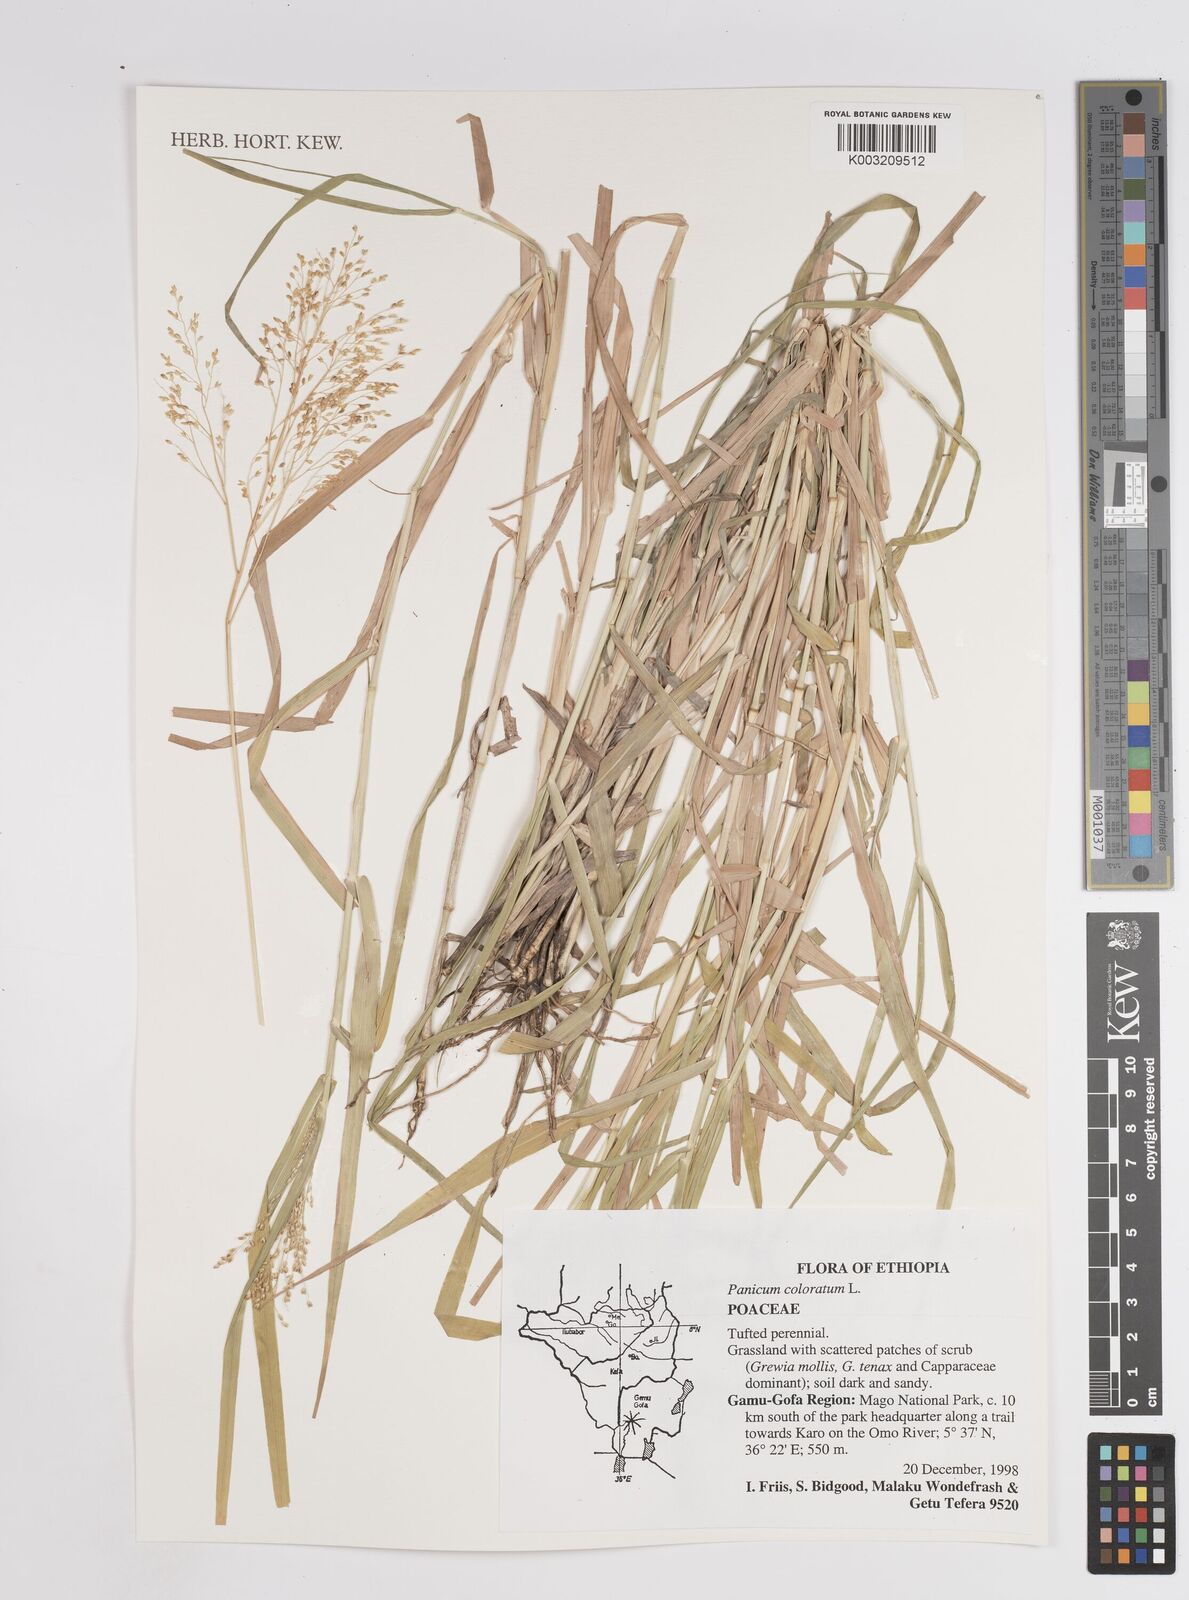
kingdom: Plantae
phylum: Tracheophyta
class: Liliopsida
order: Poales
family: Poaceae
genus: Tricholaena
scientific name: Tricholaena monachne
